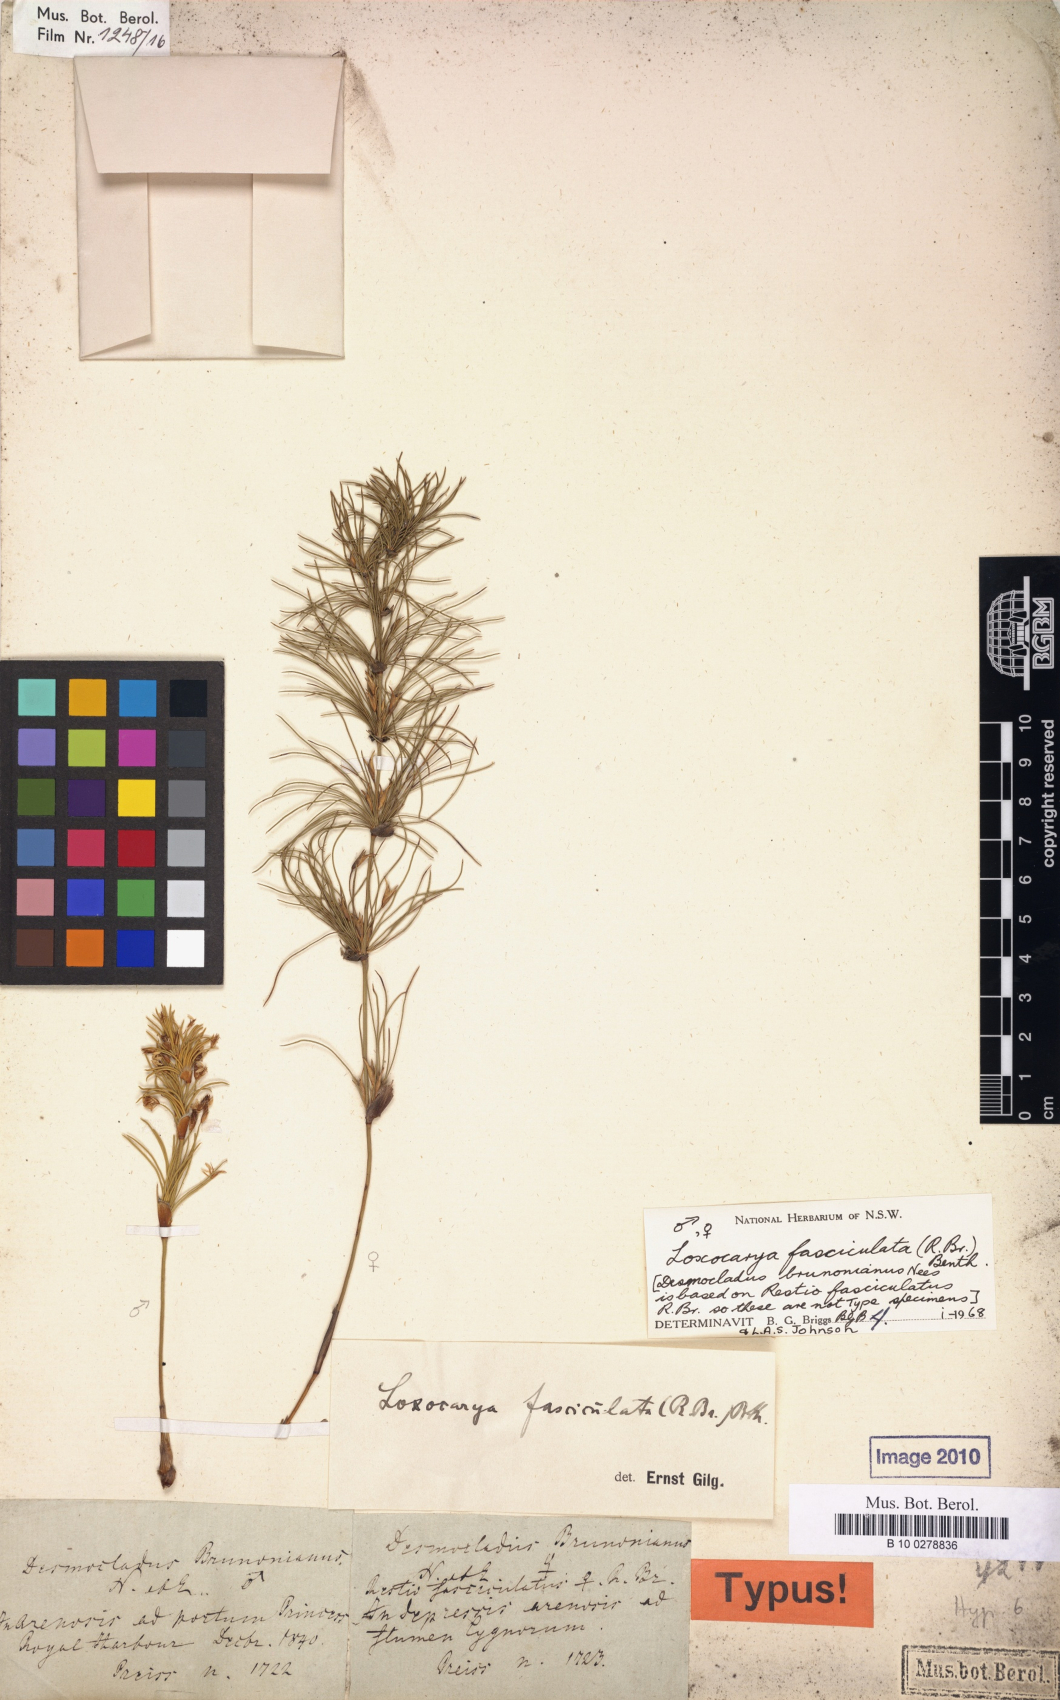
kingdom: Plantae
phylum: Tracheophyta
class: Liliopsida
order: Poales
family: Restionaceae
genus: Desmocladus
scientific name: Desmocladus fasciculatus
